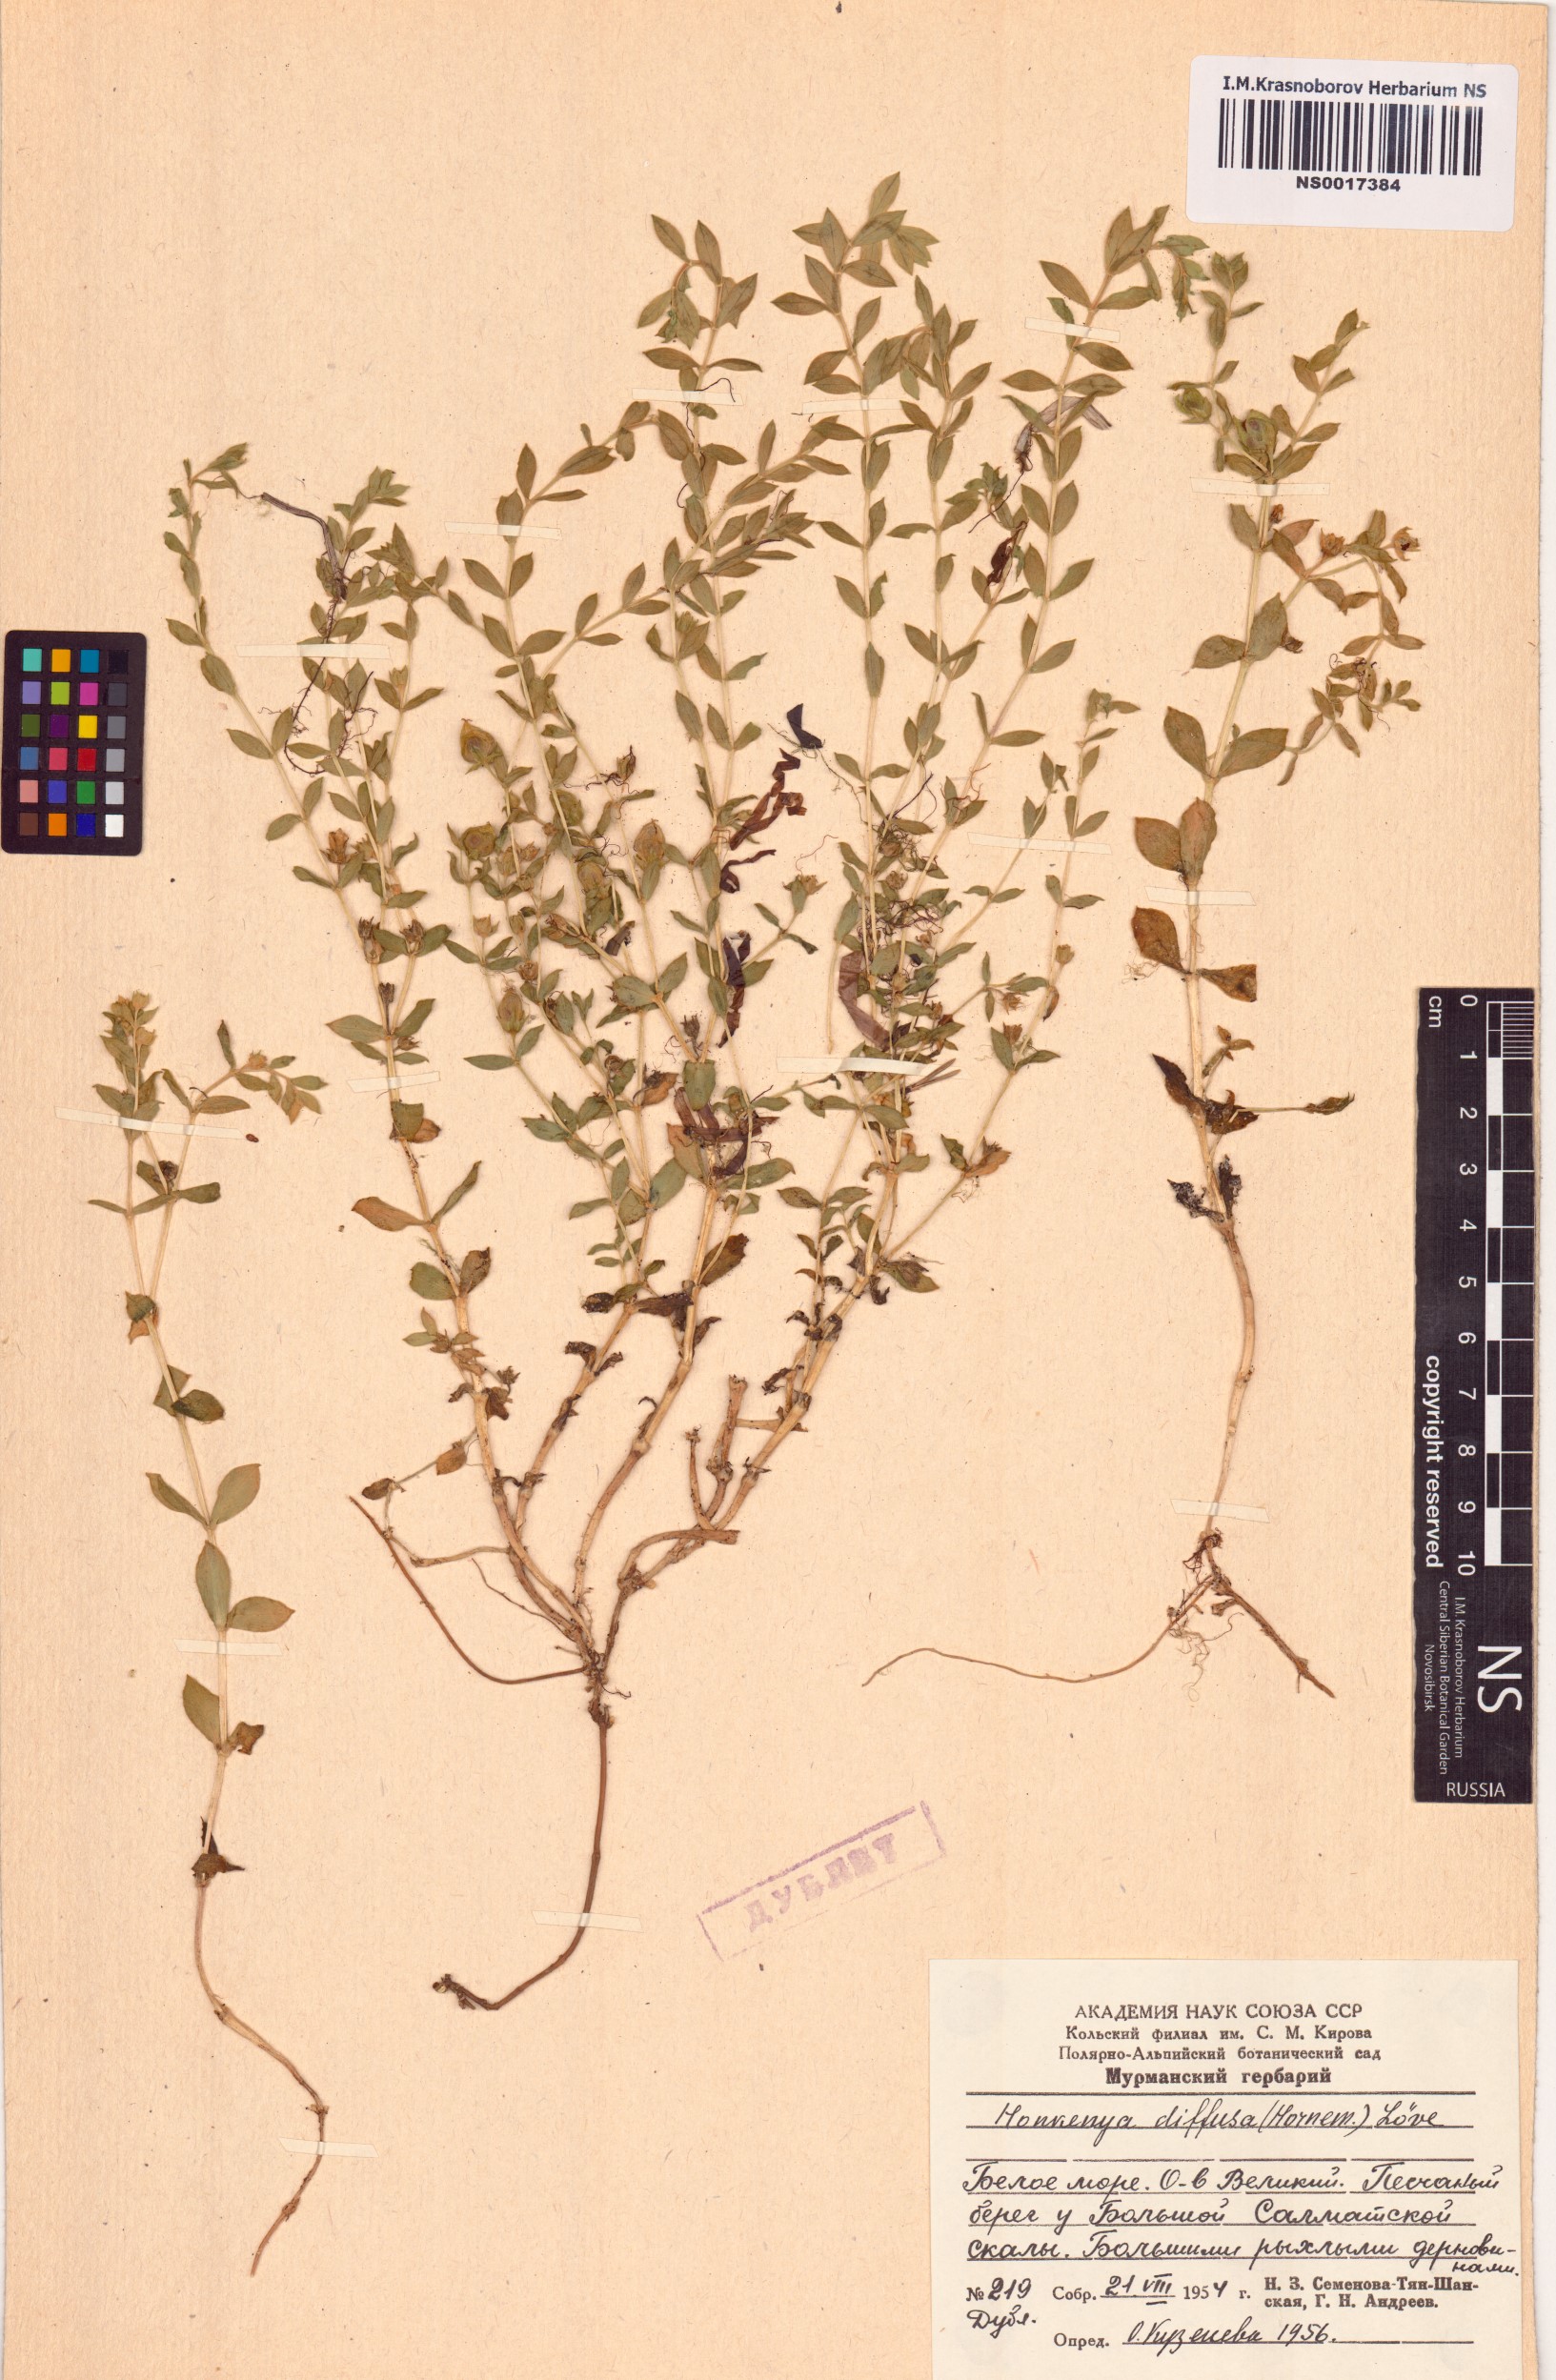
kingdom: Plantae
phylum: Tracheophyta
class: Magnoliopsida
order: Caryophyllales
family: Caryophyllaceae
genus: Honckenya
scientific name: Honckenya peploides
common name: Sea sandwort
